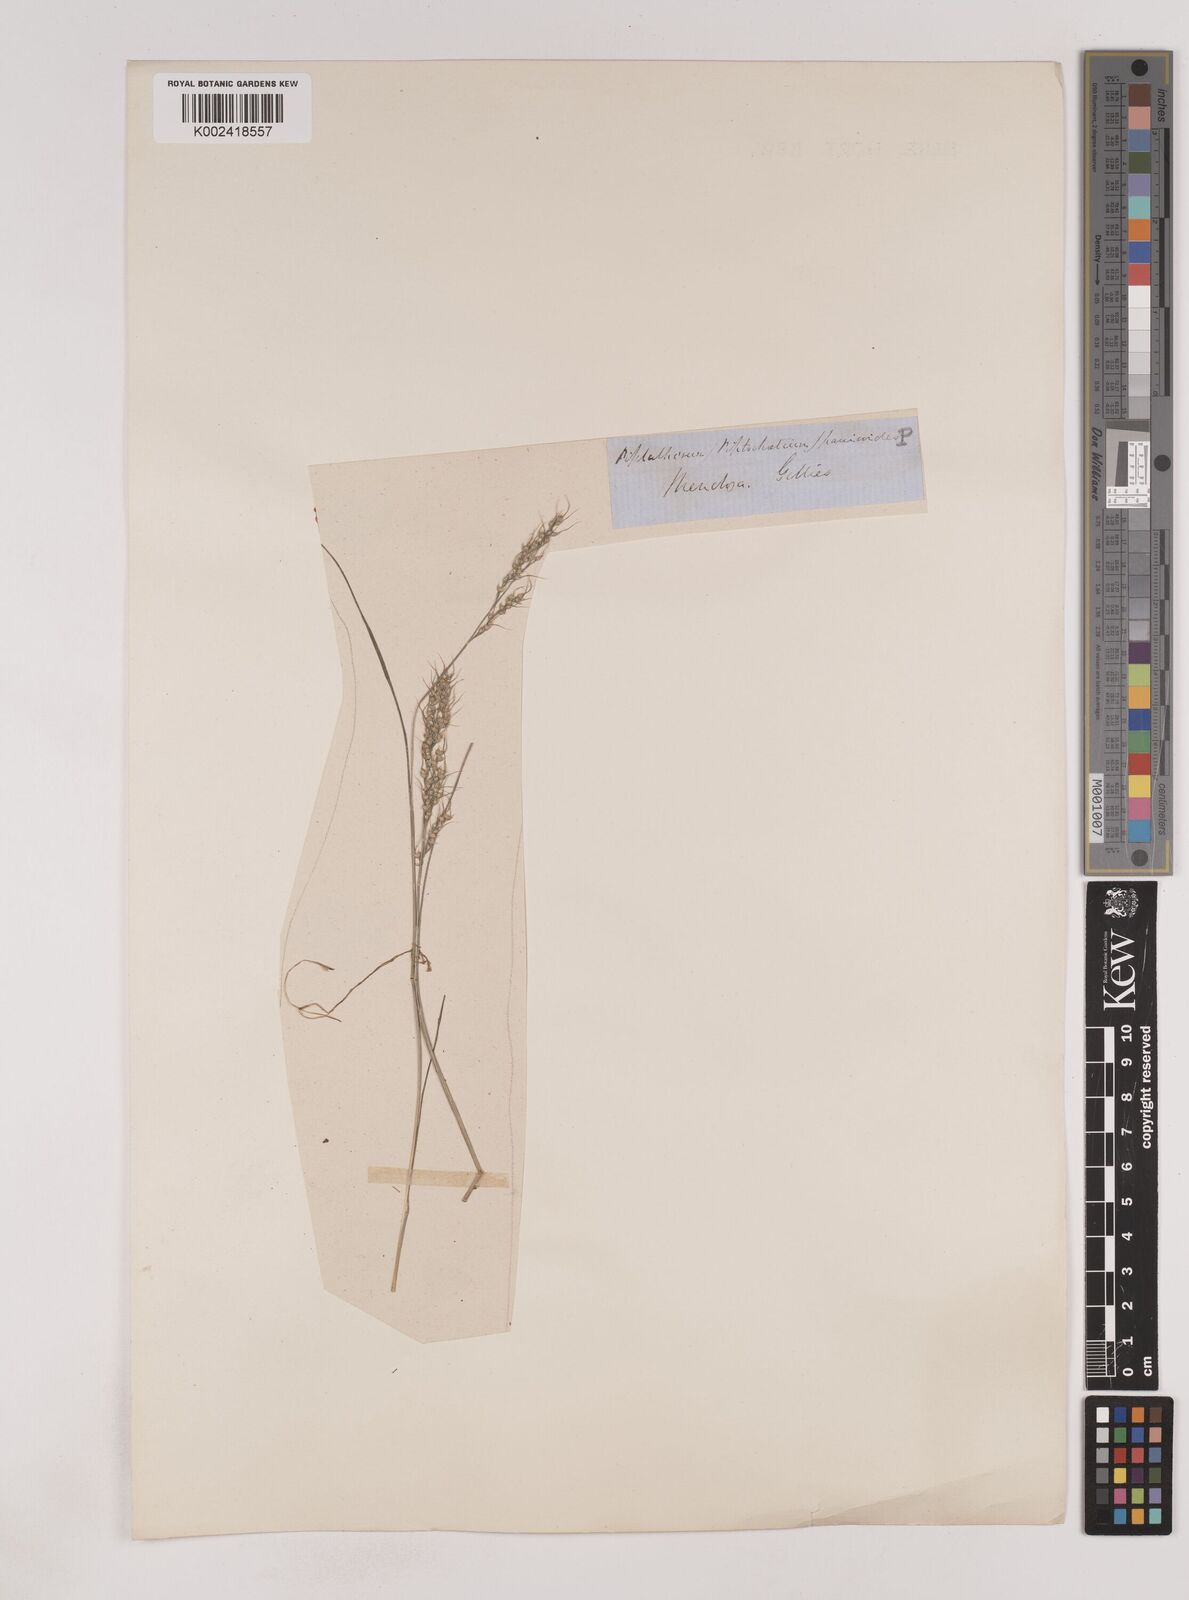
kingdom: Plantae
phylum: Tracheophyta
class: Liliopsida
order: Poales
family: Poaceae
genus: Piptochaetium
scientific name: Piptochaetium montevidense
